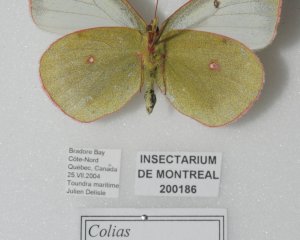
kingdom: Animalia
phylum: Arthropoda
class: Insecta
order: Lepidoptera
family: Pieridae
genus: Colias
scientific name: Colias pelidne
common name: Pelidne Sulphur
